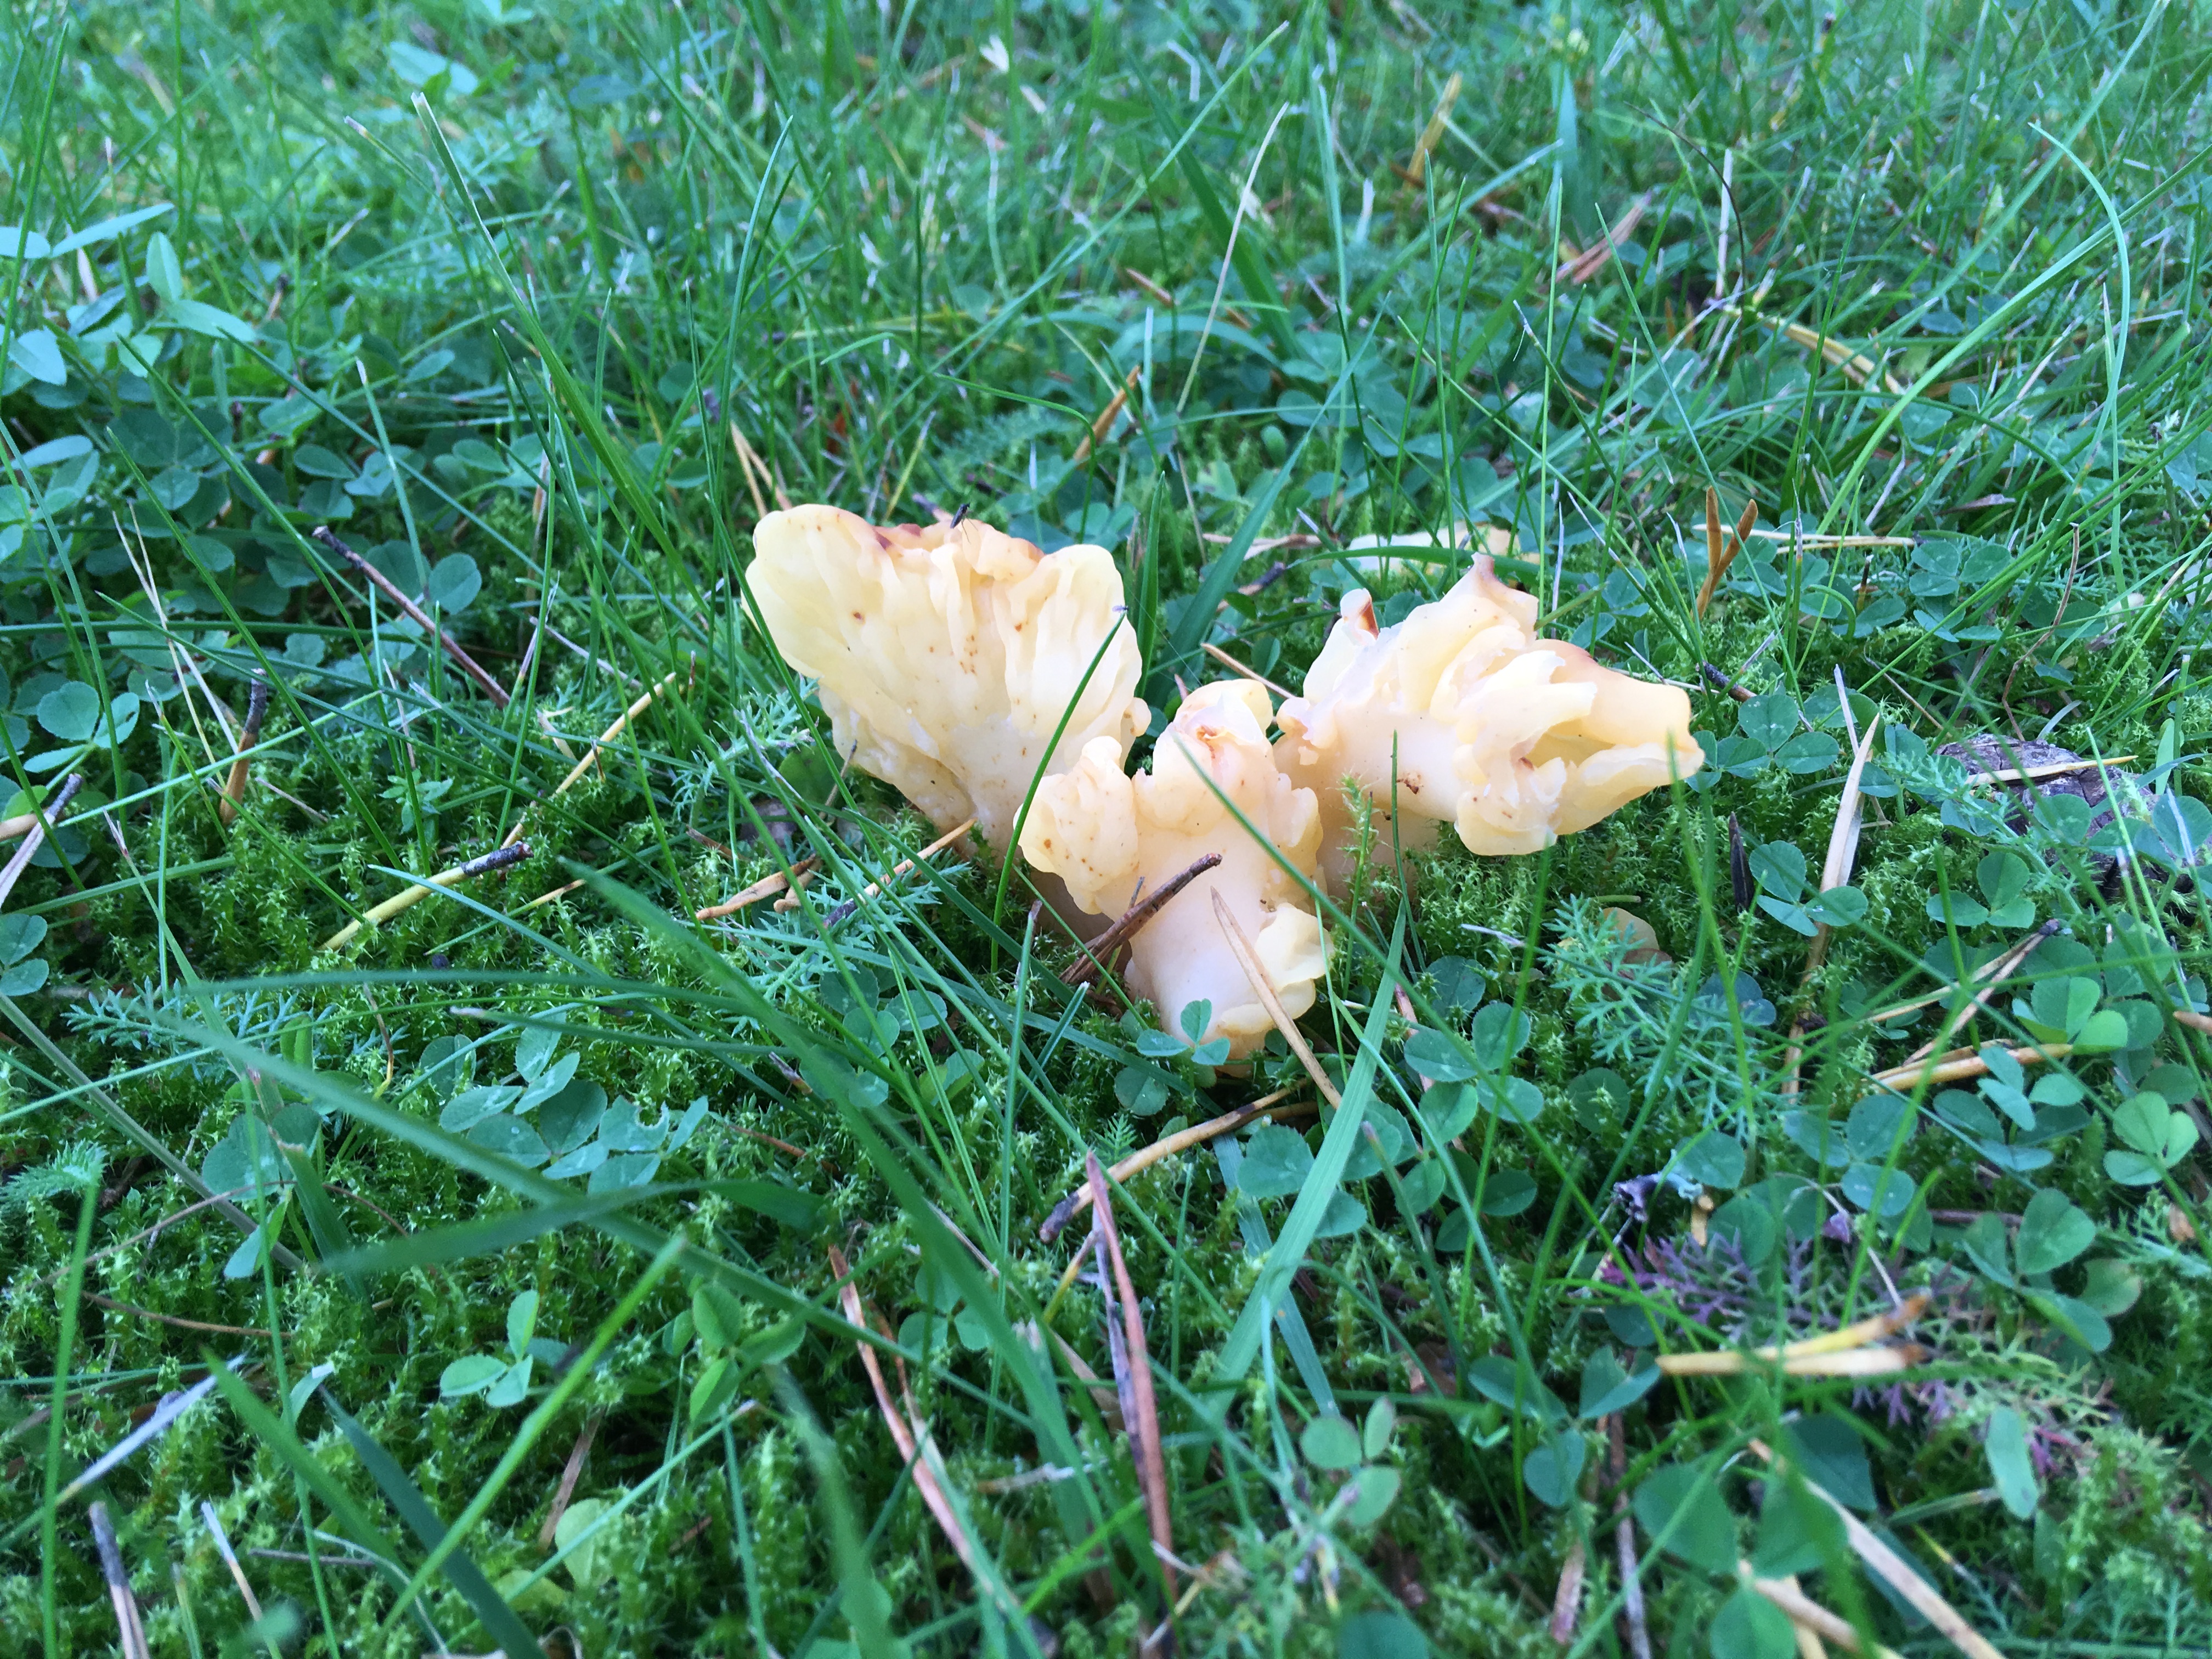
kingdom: Fungi
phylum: Ascomycota
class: Leotiomycetes
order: Rhytismatales
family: Cudoniaceae
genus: Spathularia
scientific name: Spathularia flavida
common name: Yellow fan
